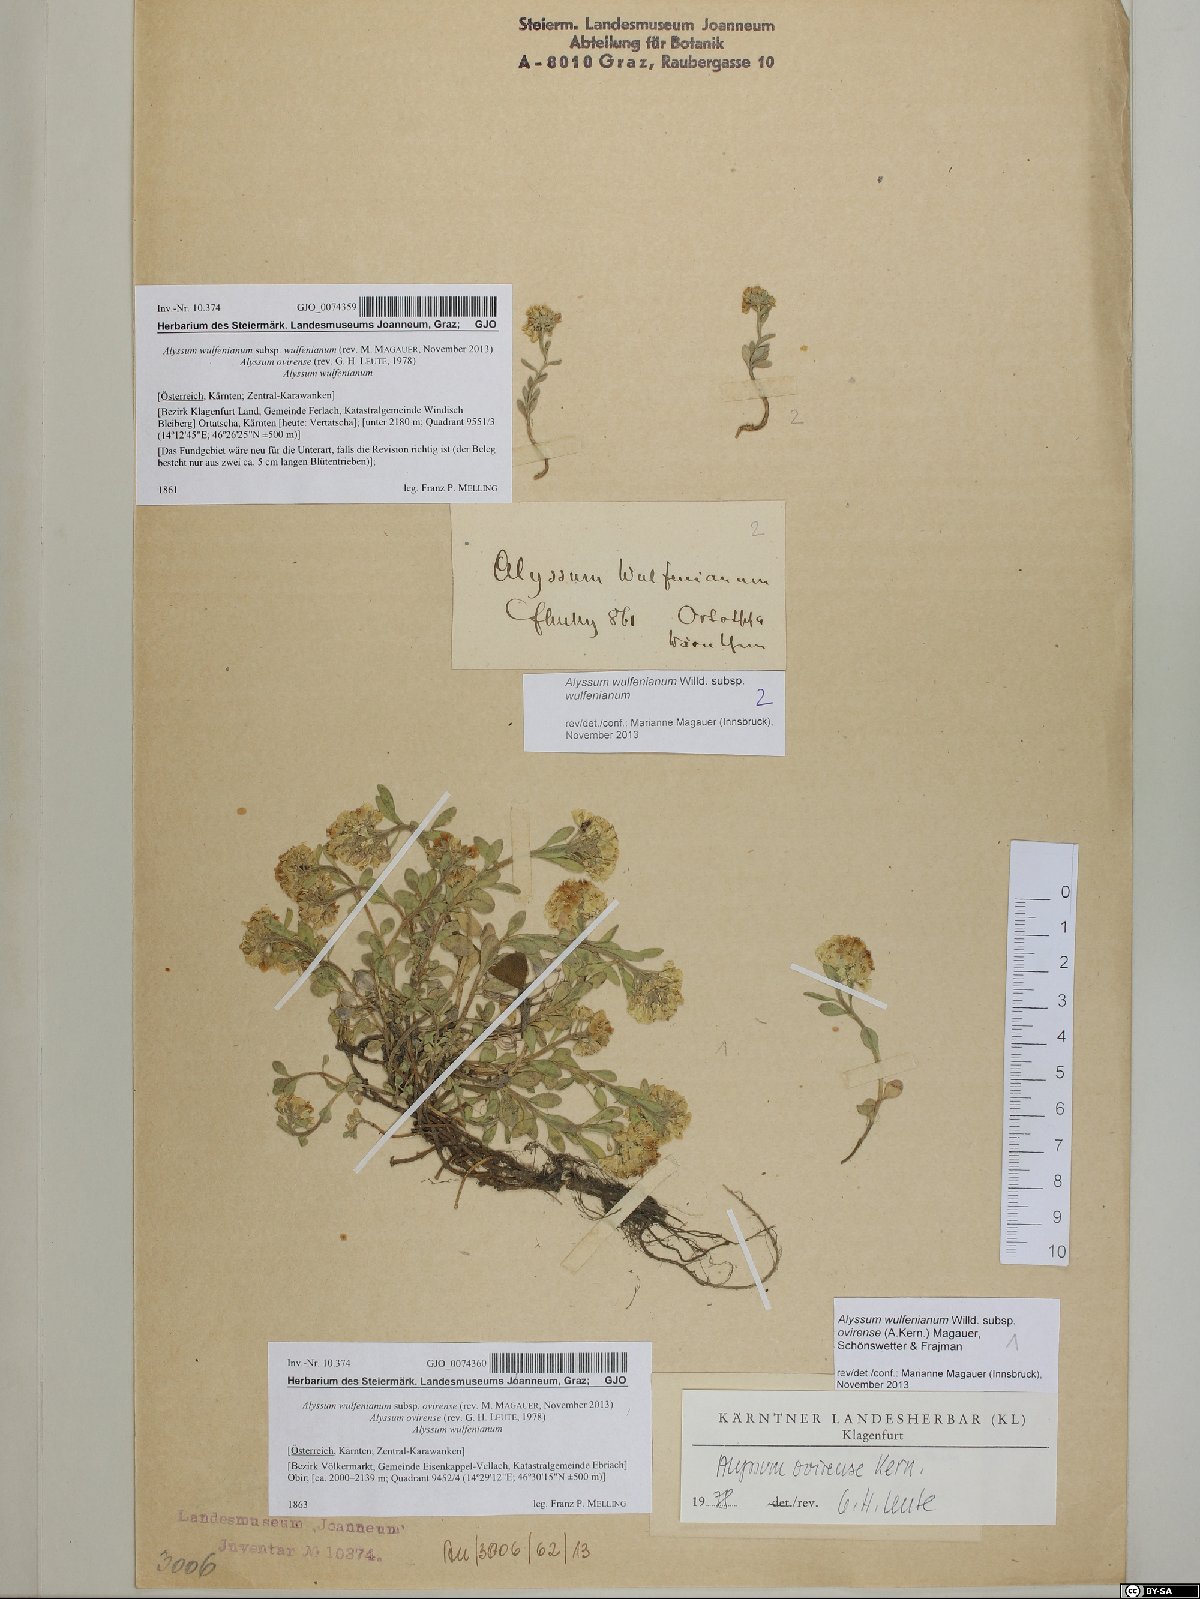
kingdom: Plantae
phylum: Tracheophyta
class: Magnoliopsida
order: Brassicales
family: Brassicaceae
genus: Alyssum
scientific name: Alyssum wulfenianum
